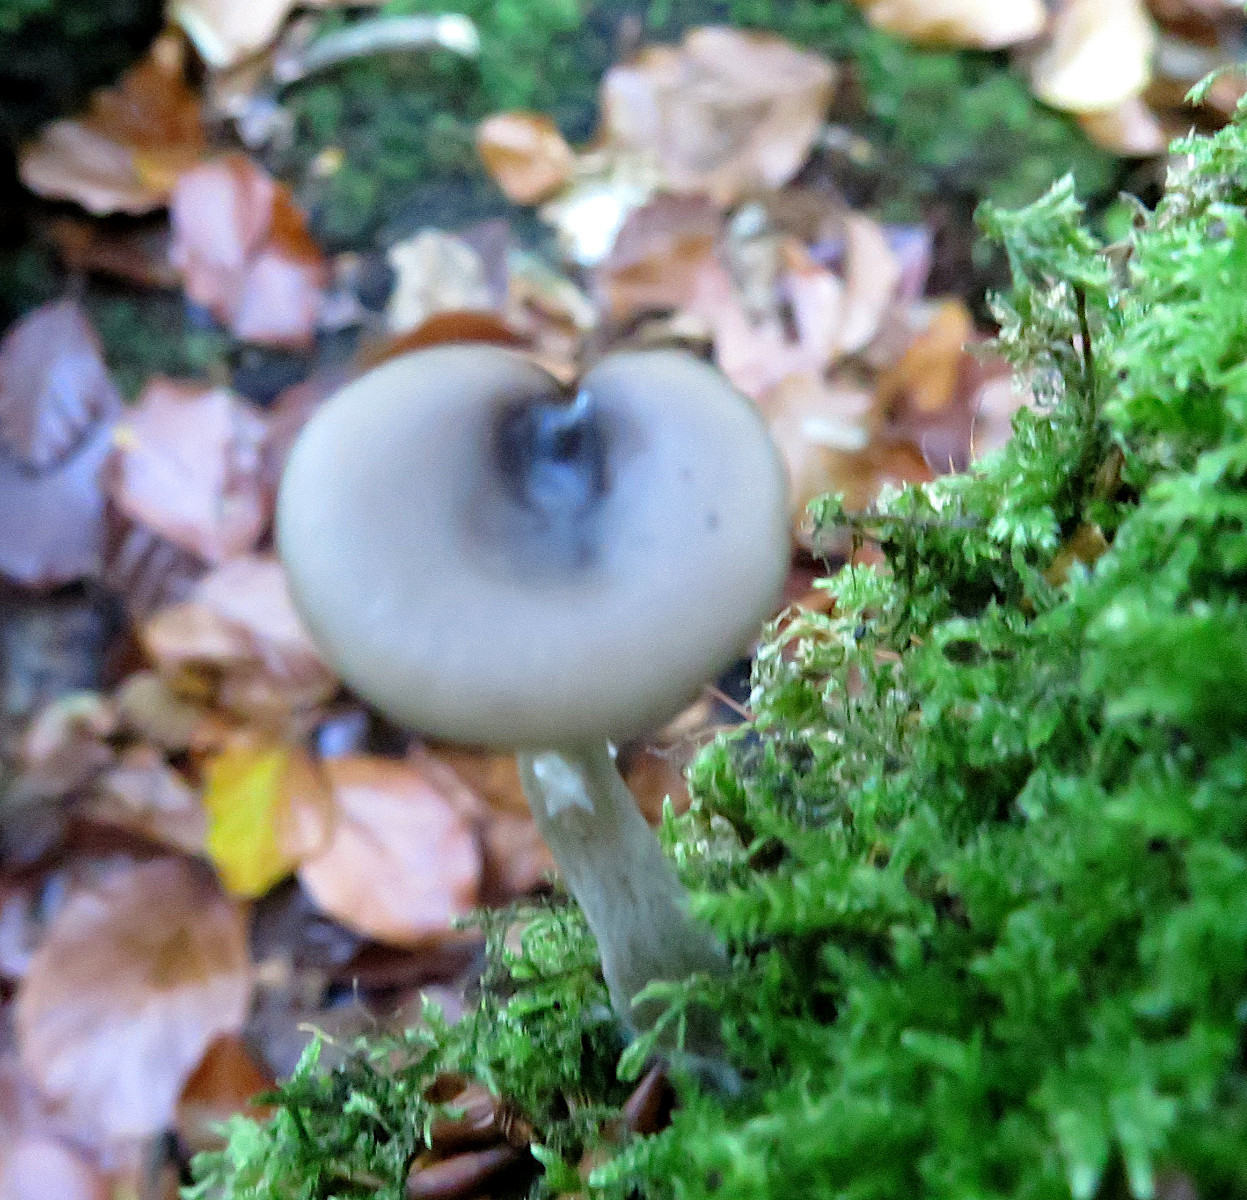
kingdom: Fungi
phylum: Basidiomycota
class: Agaricomycetes
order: Agaricales
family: Pseudoclitocybaceae
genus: Pseudoclitocybe
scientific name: Pseudoclitocybe cyathiformis
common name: almindelig bægertragthat
